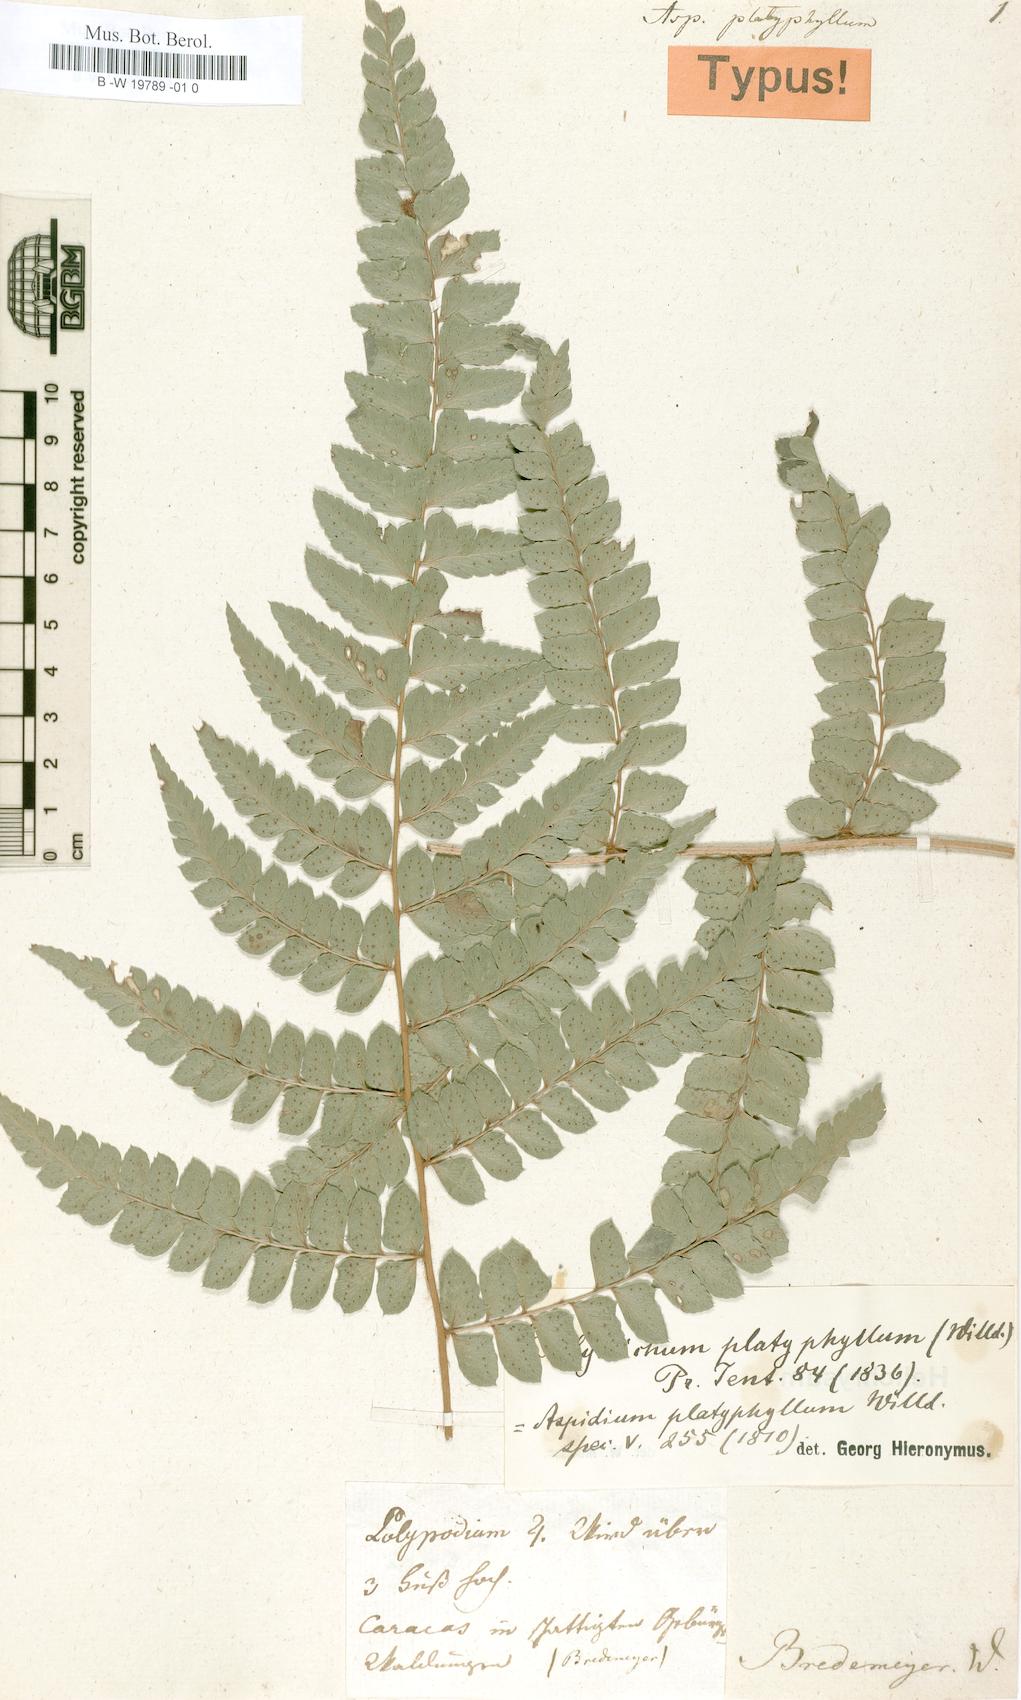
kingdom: Plantae
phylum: Tracheophyta
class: Polypodiopsida
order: Polypodiales
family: Dryopteridaceae
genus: Polystichum
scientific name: Polystichum platyphyllum
